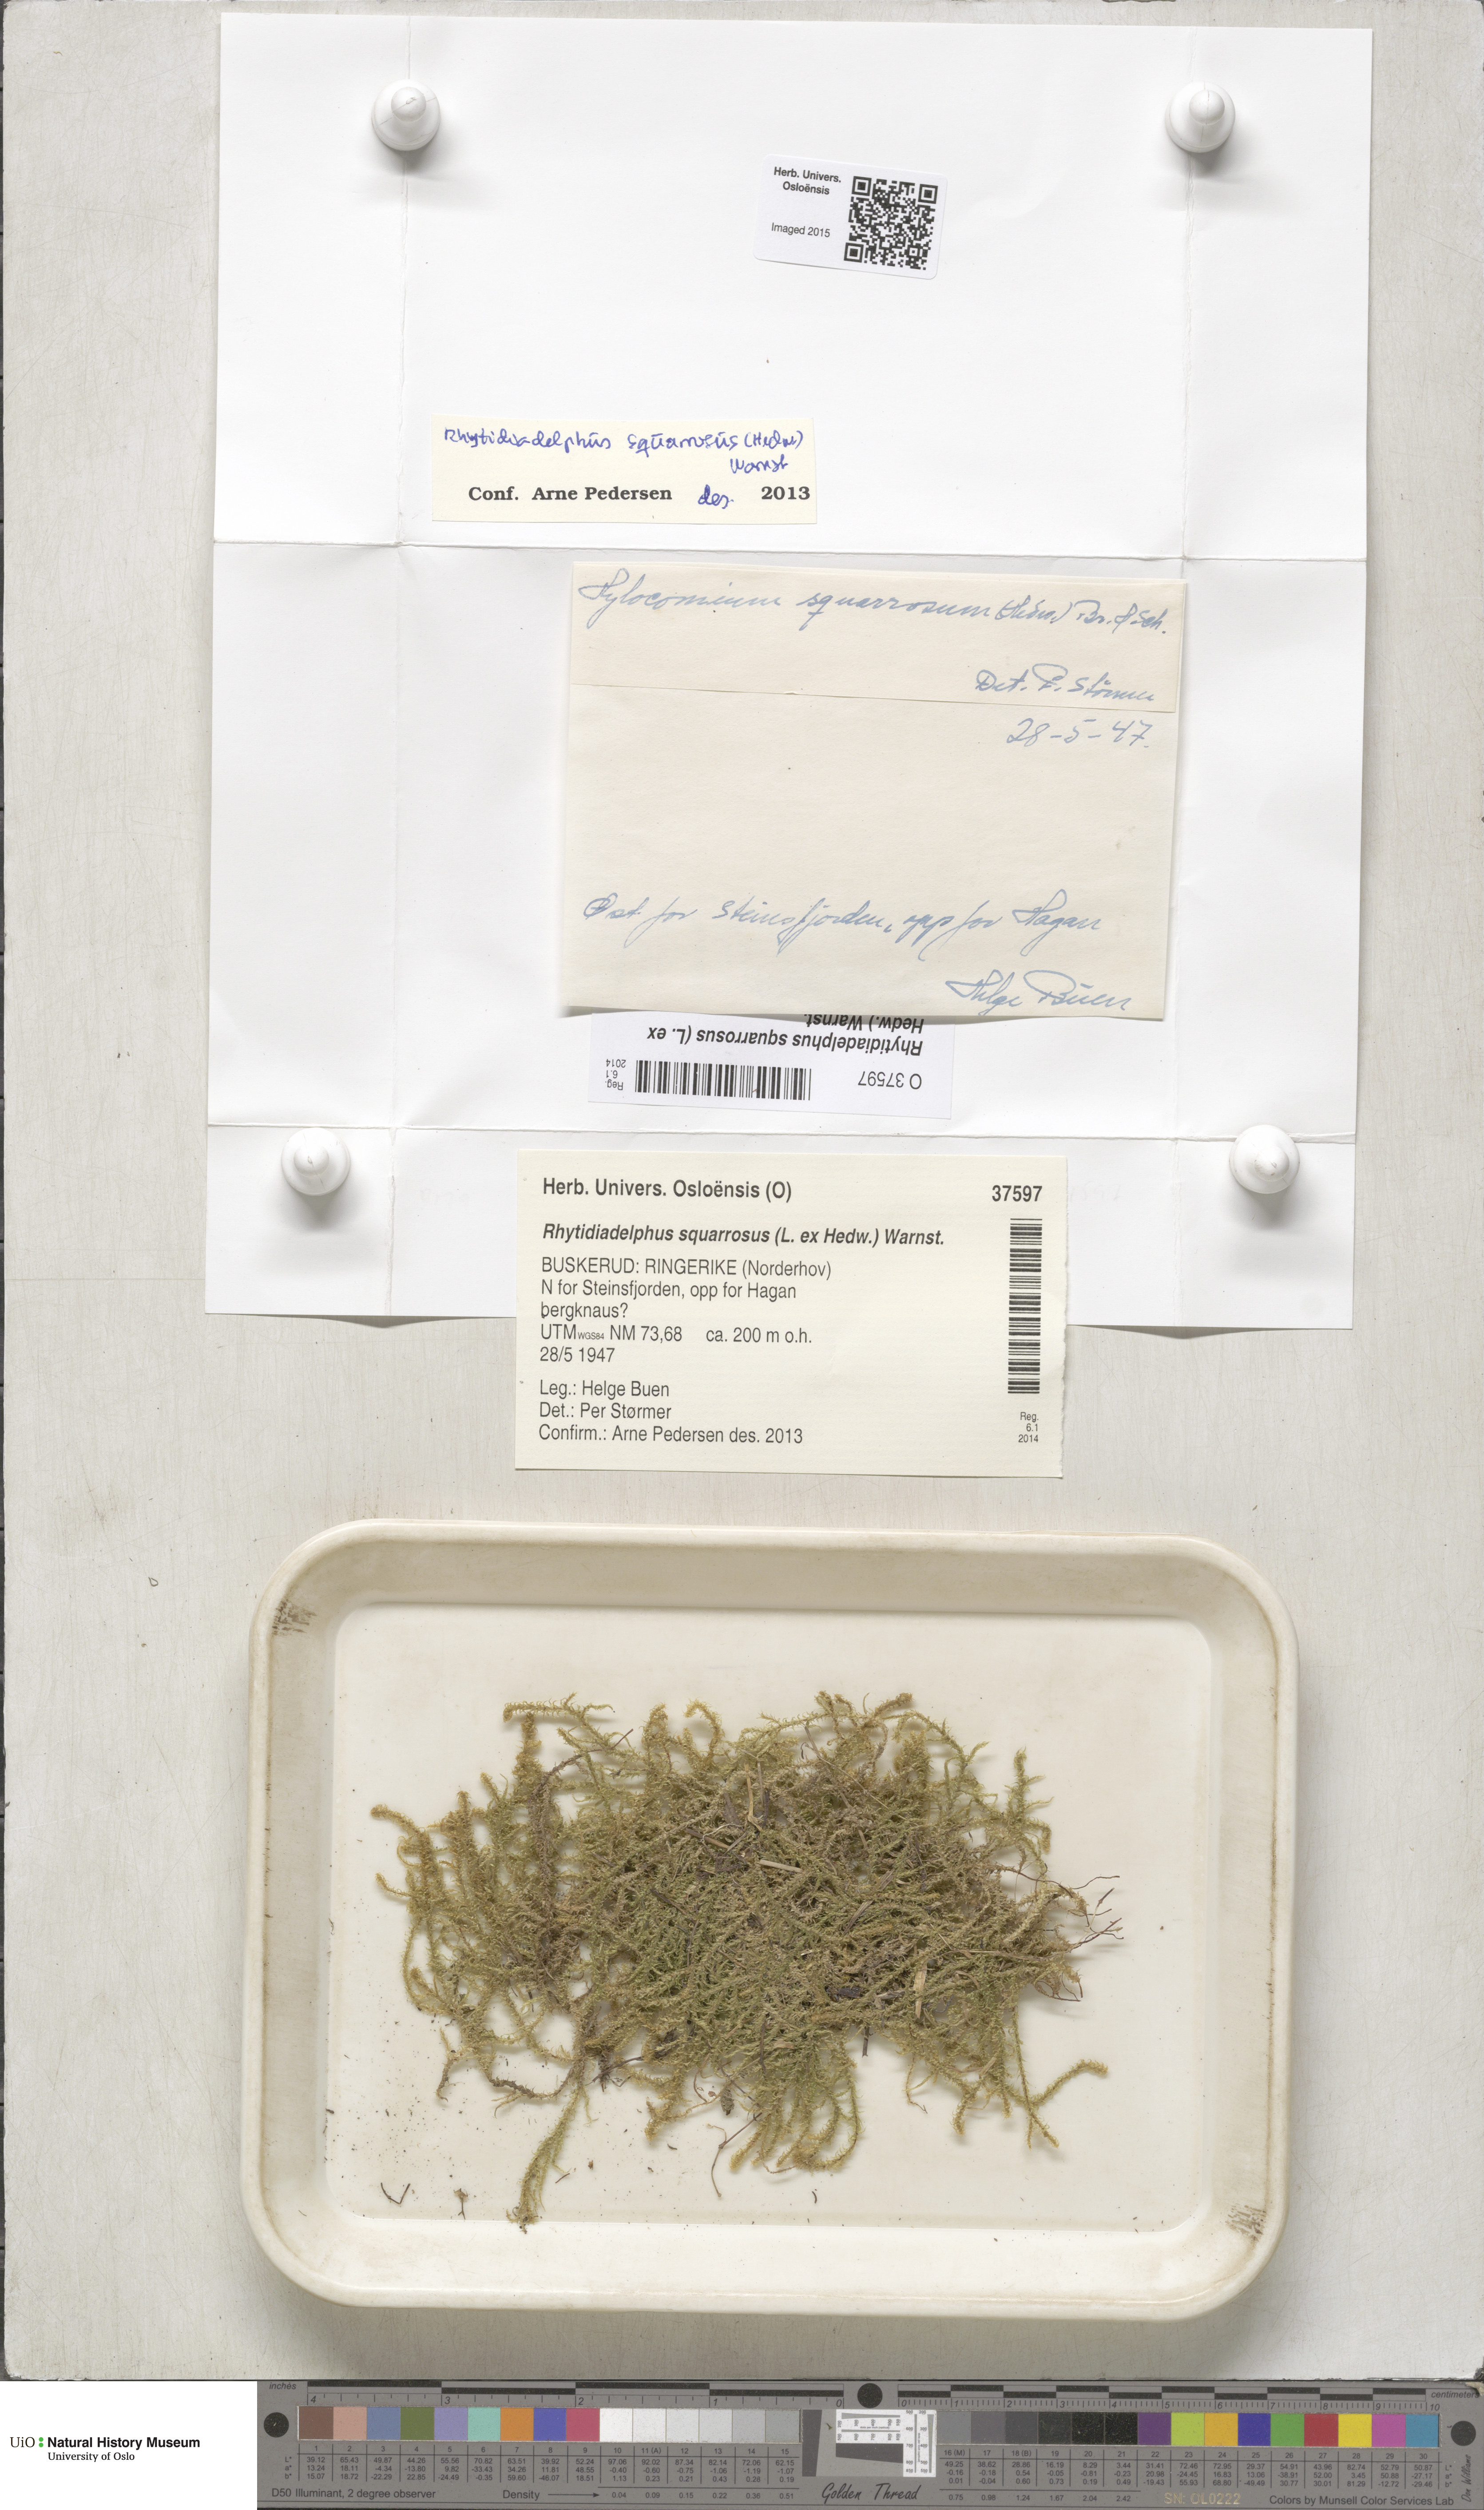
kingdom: Plantae
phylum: Bryophyta
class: Bryopsida
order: Hypnales
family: Hylocomiaceae
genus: Rhytidiadelphus
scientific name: Rhytidiadelphus squarrosus
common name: Springy turf-moss
